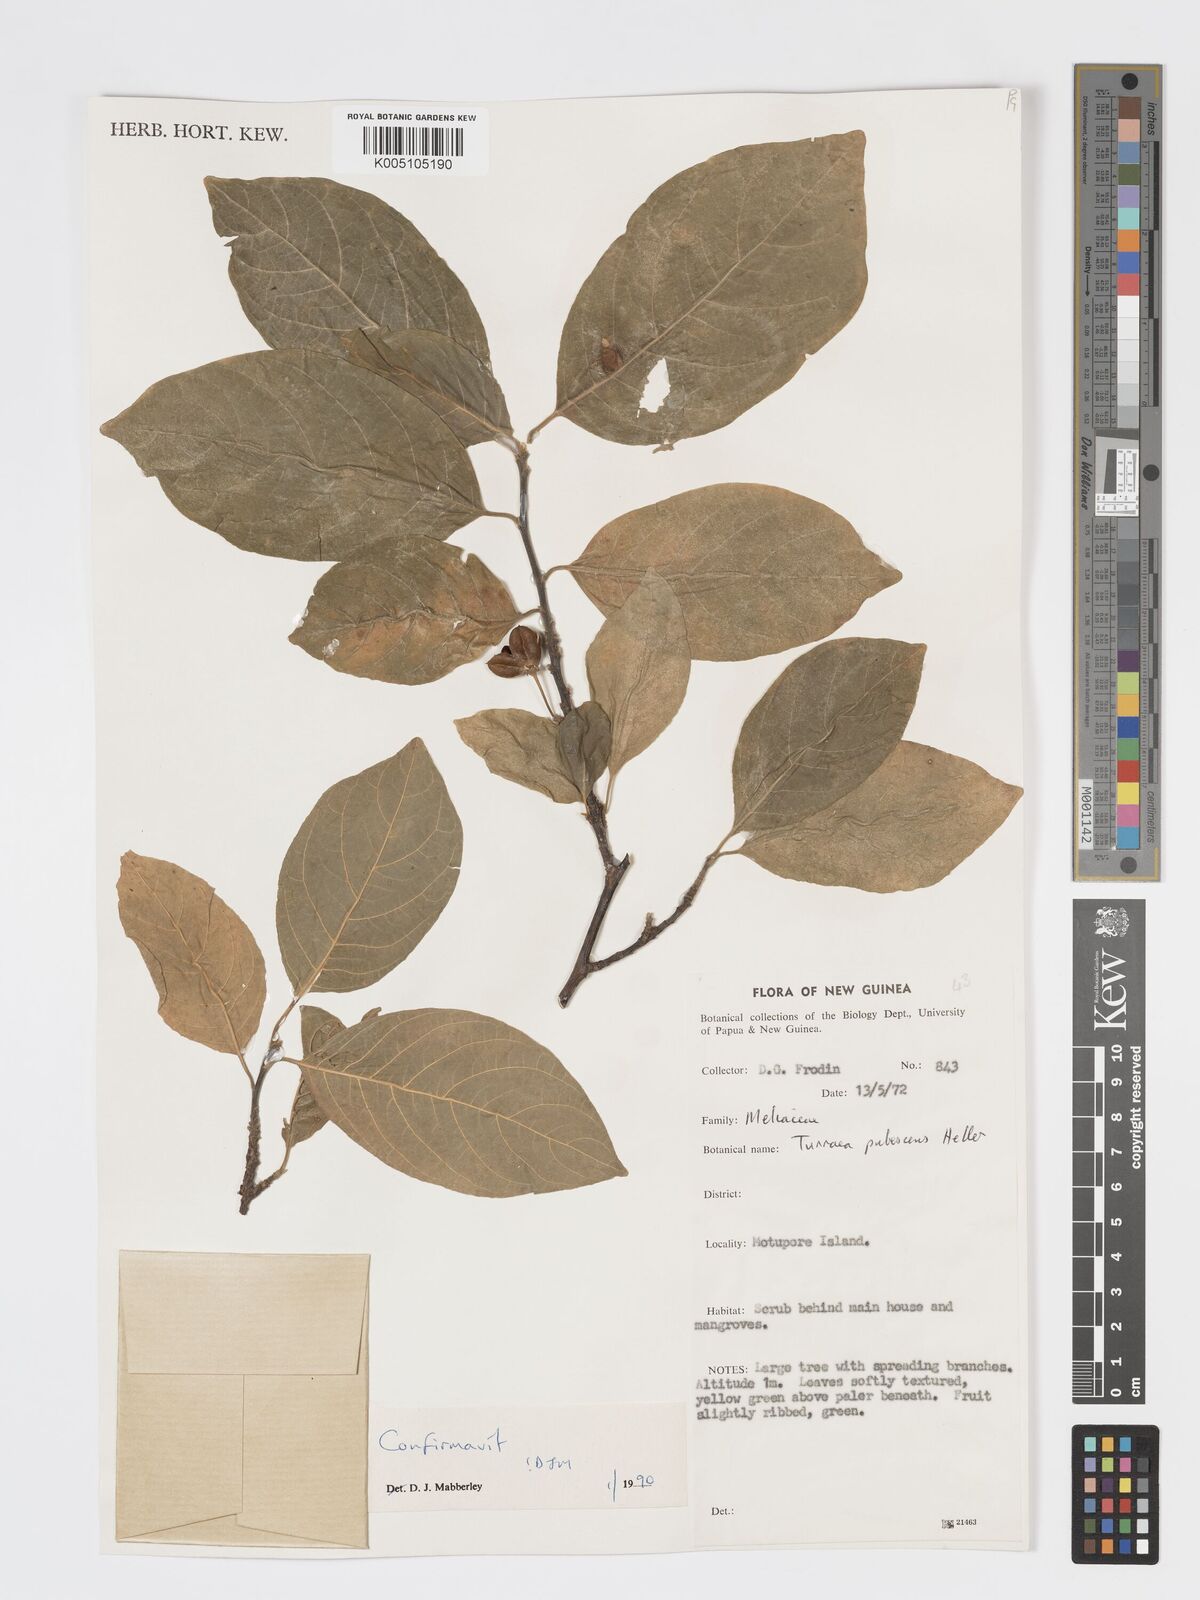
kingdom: Plantae
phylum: Tracheophyta
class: Magnoliopsida
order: Sapindales
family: Meliaceae
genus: Turraea
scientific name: Turraea
